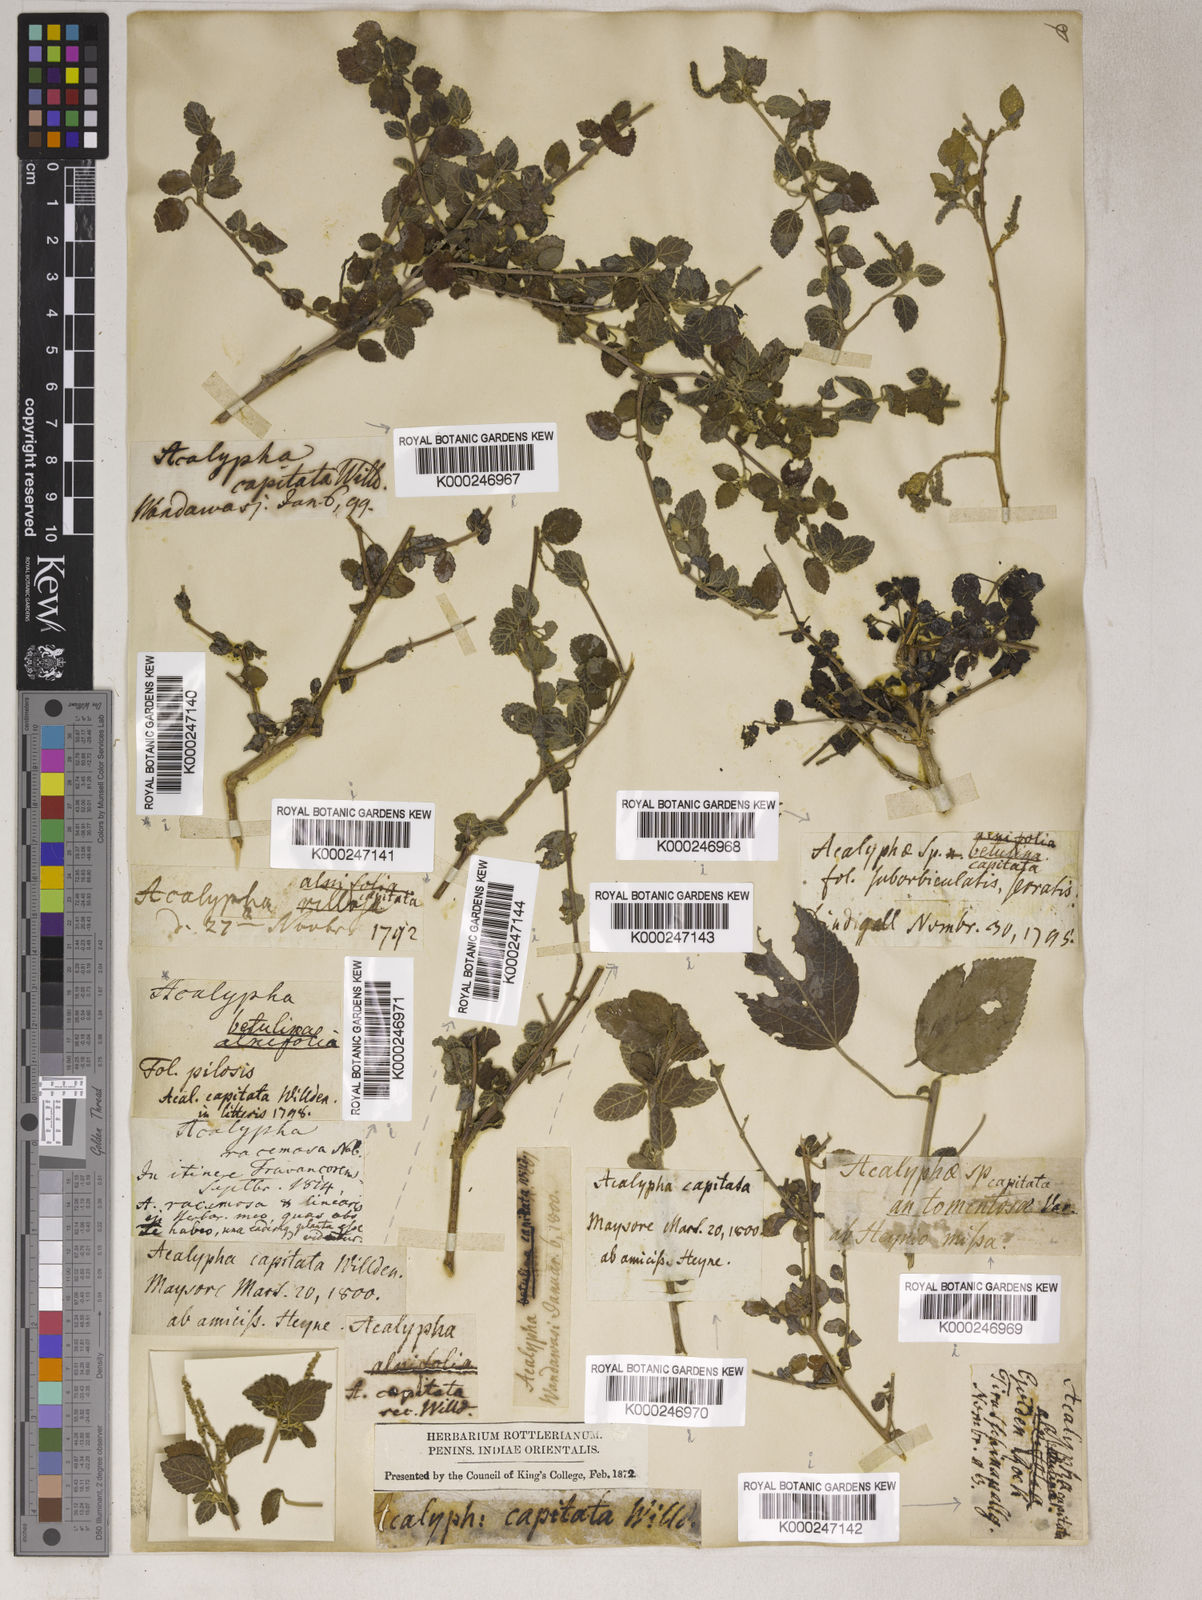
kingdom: Plantae
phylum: Tracheophyta
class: Magnoliopsida
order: Malpighiales
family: Euphorbiaceae
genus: Acalypha
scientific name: Acalypha capitata
